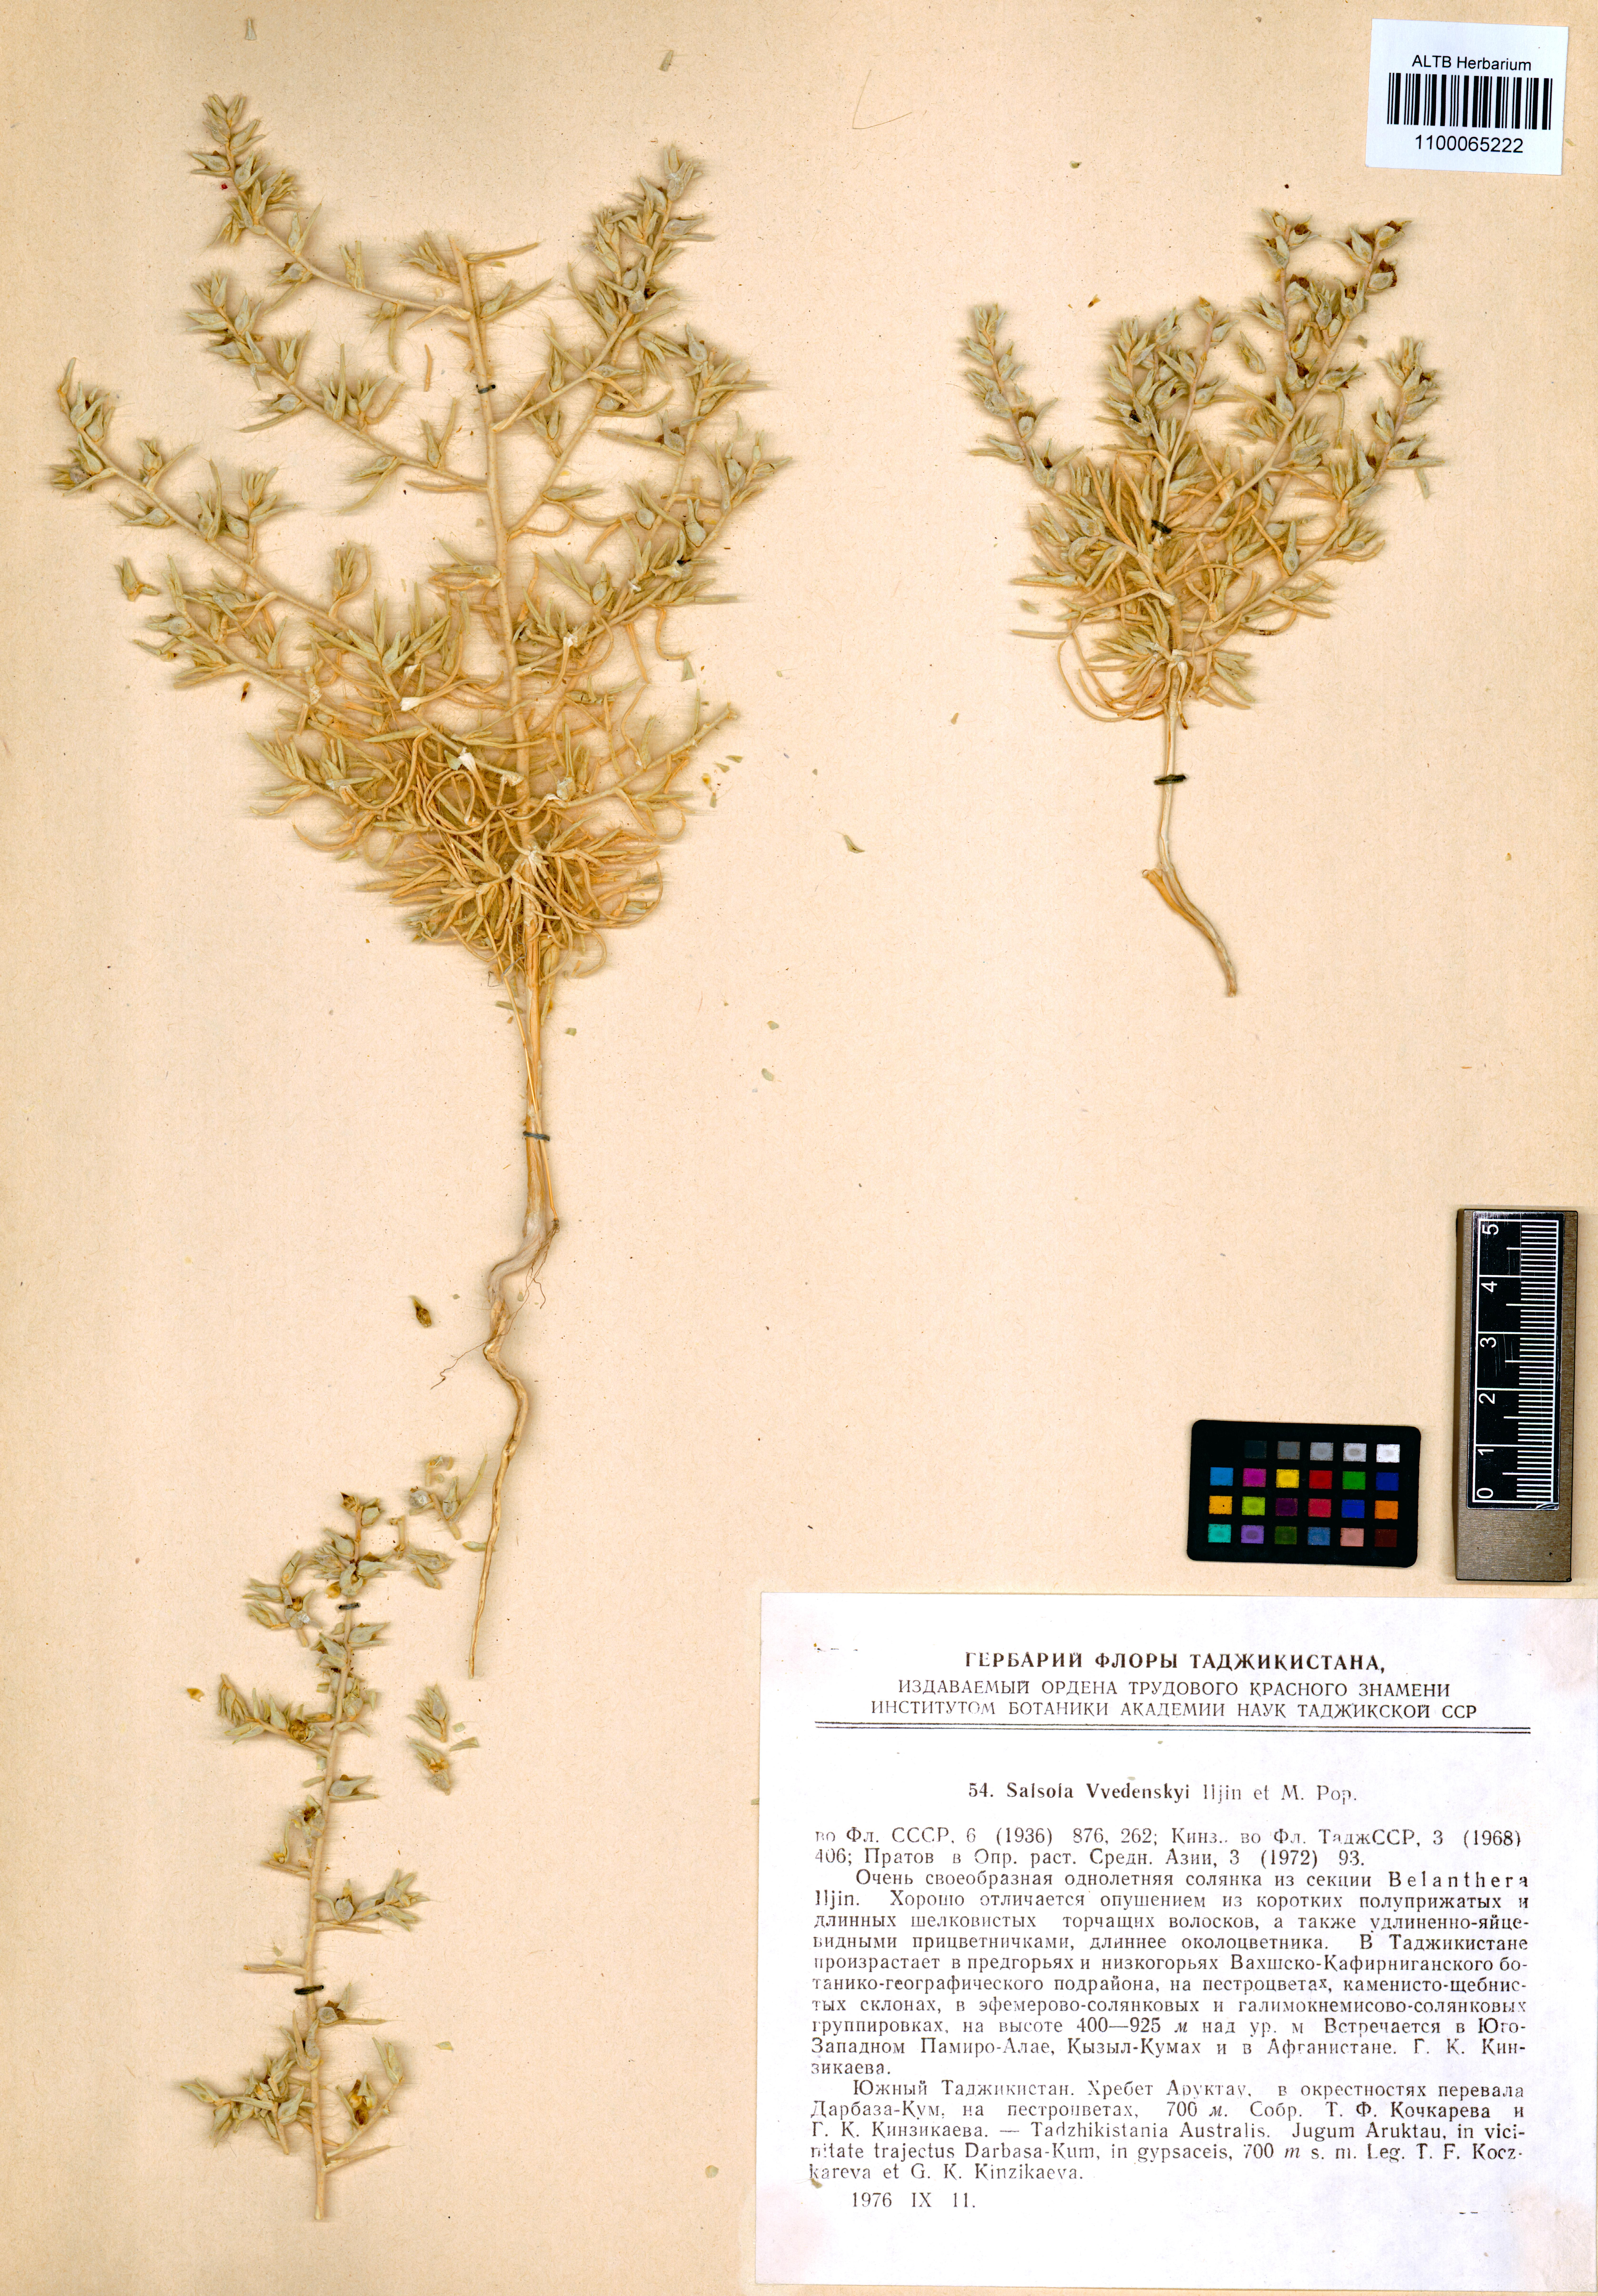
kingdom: Plantae
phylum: Tracheophyta
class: Magnoliopsida
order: Caryophyllales
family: Amaranthaceae
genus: Kaviria
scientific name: Kaviria vvedenskyi
